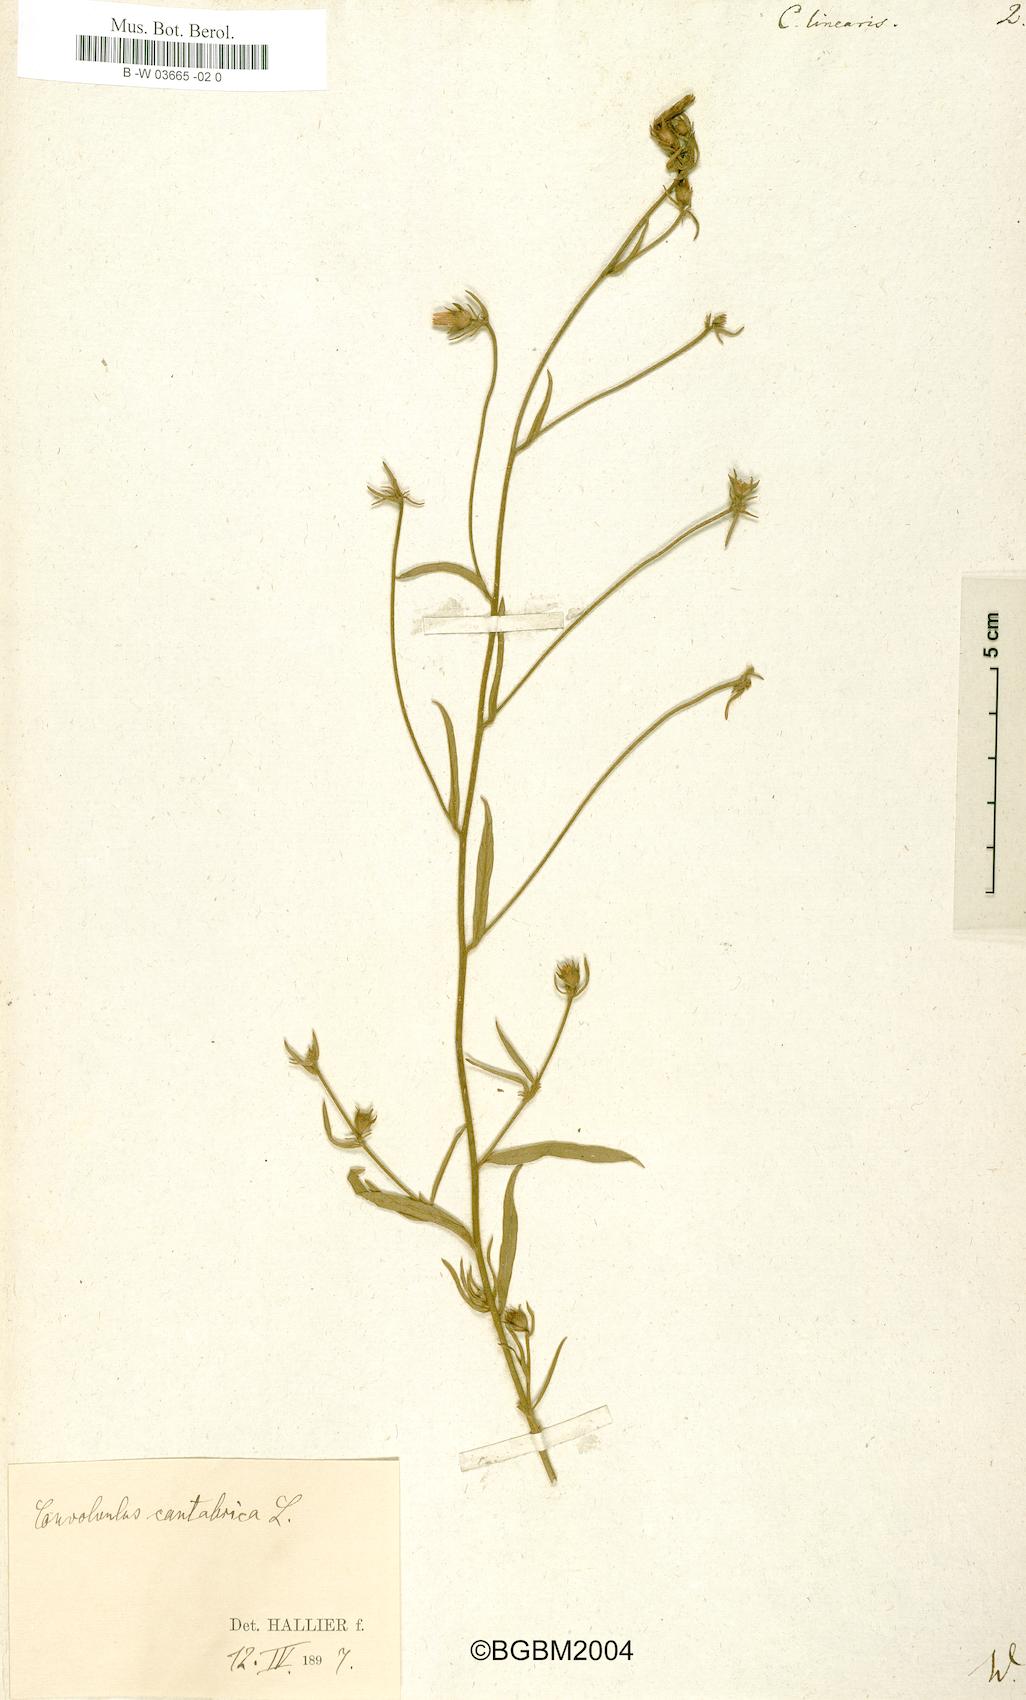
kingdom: Plantae
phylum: Tracheophyta
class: Magnoliopsida
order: Solanales
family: Convolvulaceae
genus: Convolvulus
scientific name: Convolvulus
